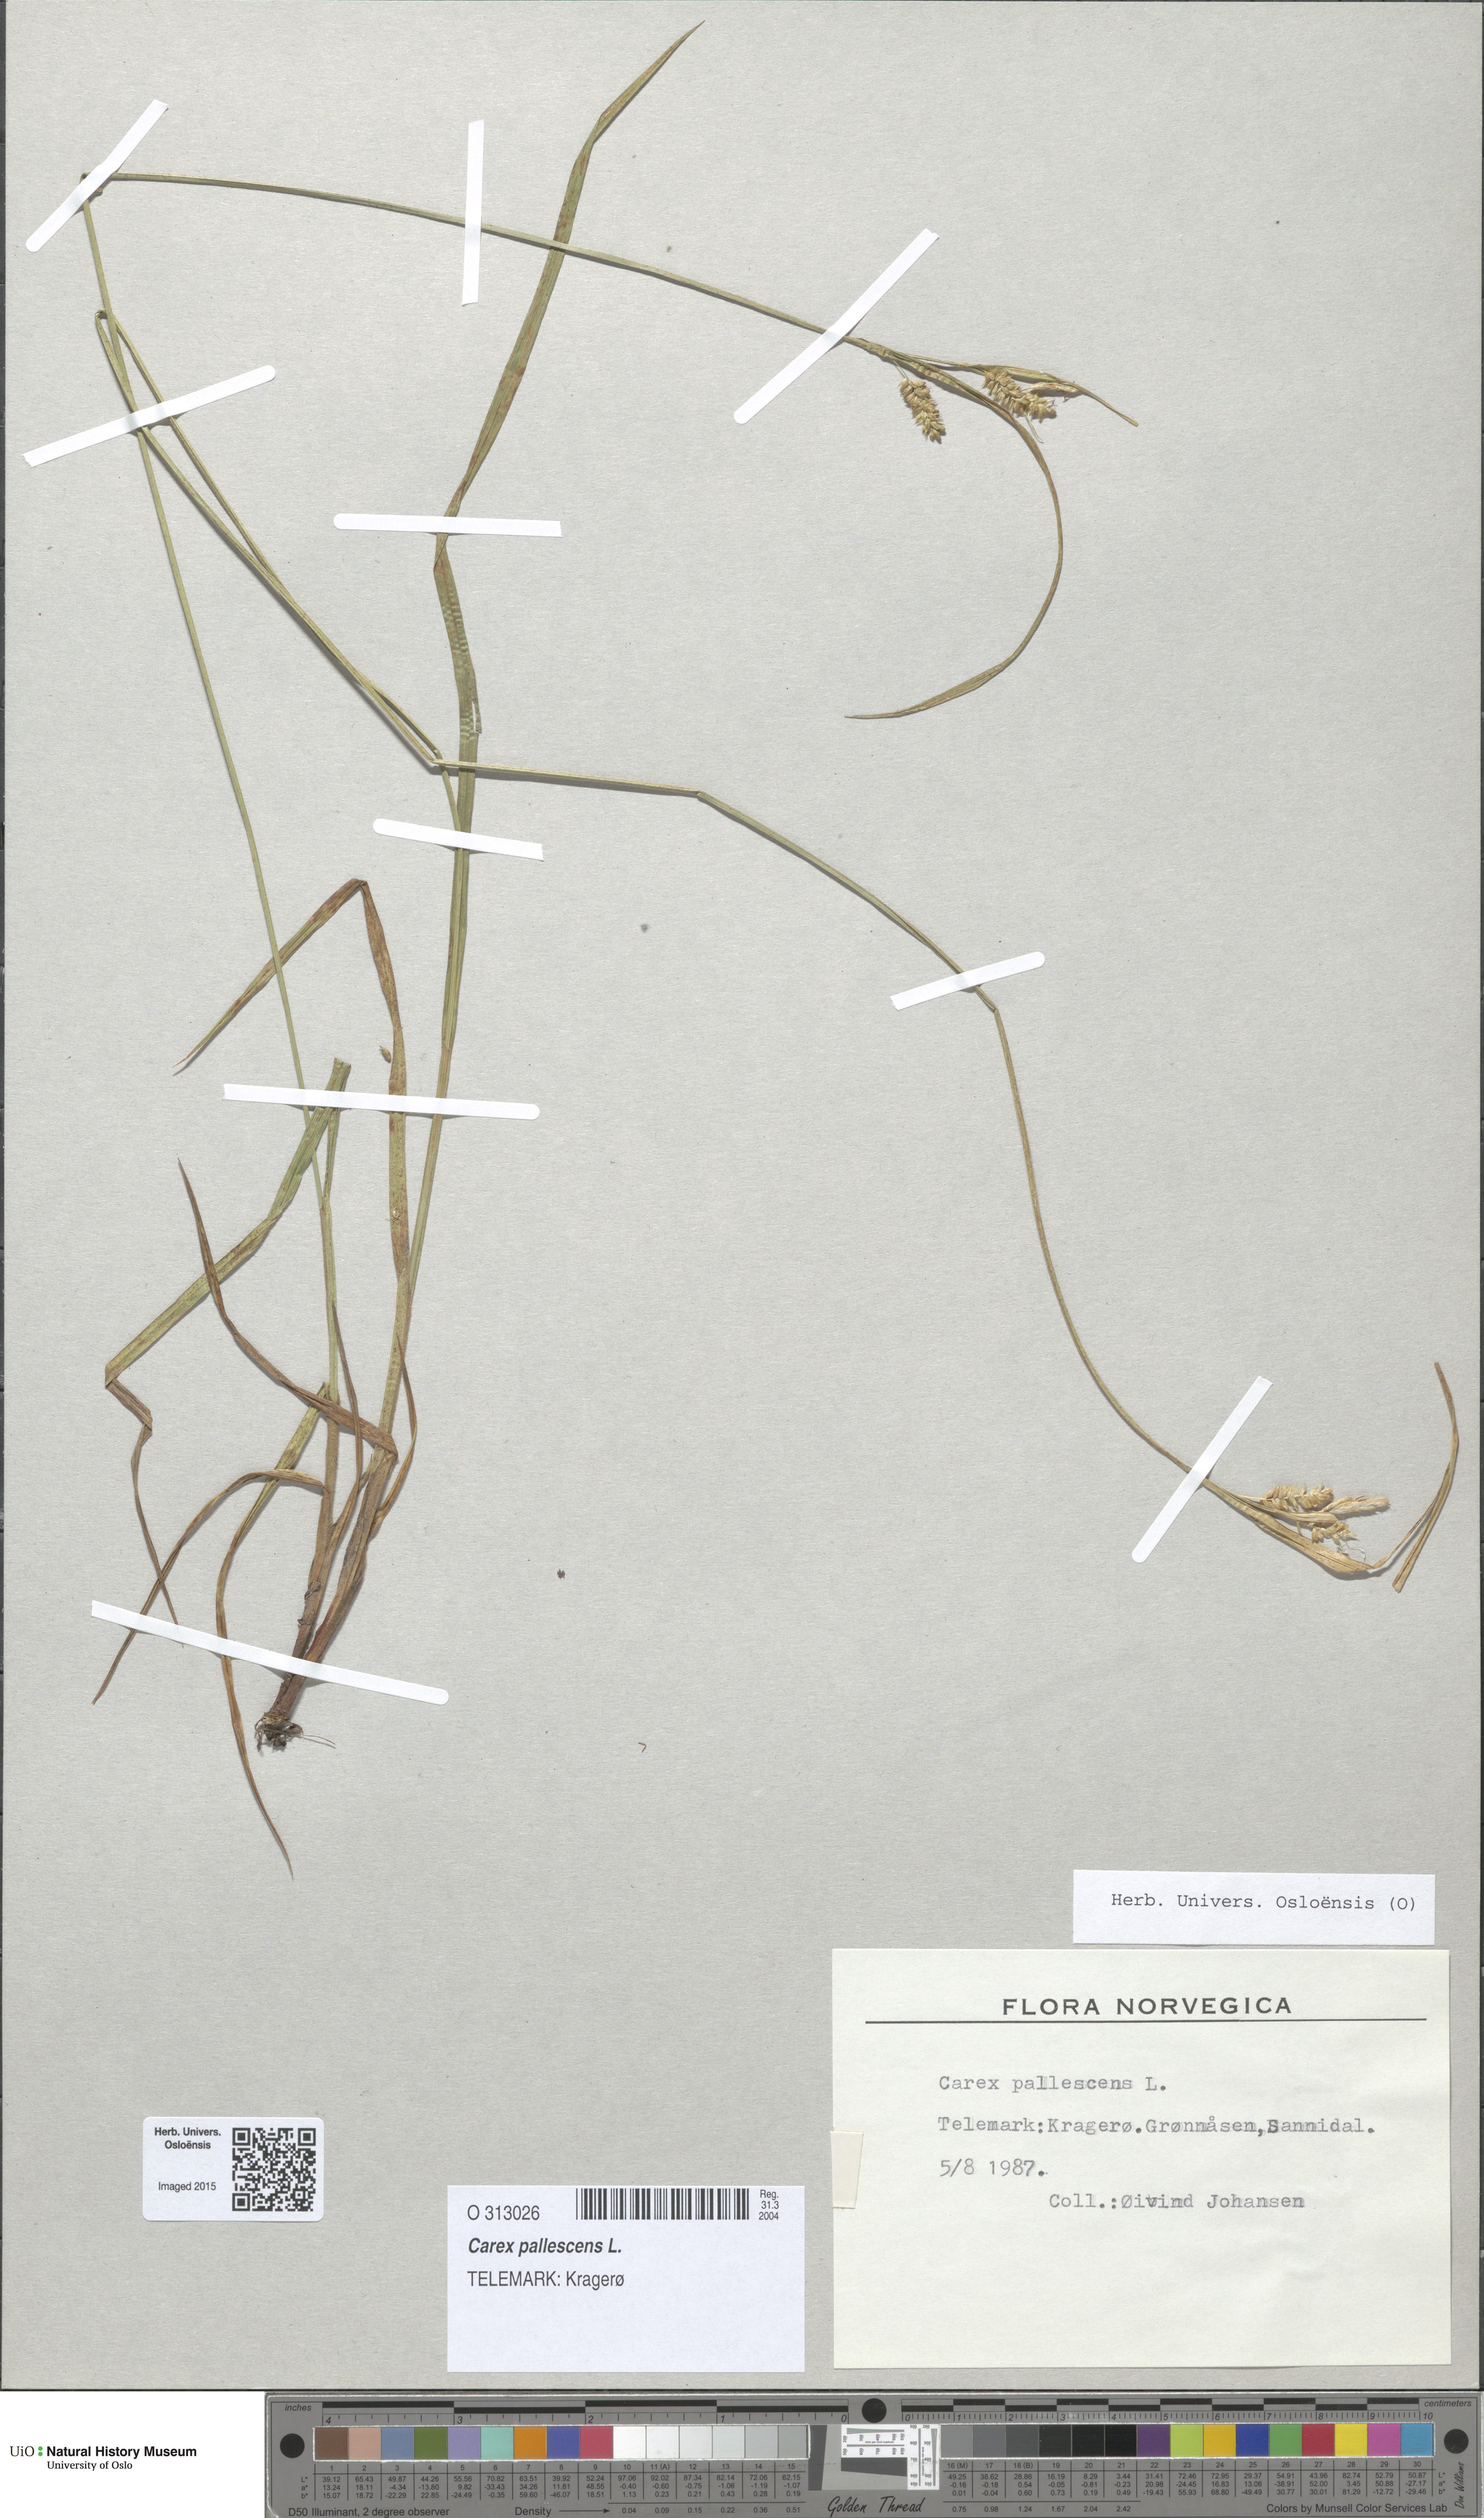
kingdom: Plantae
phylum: Tracheophyta
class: Liliopsida
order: Poales
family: Cyperaceae
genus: Carex
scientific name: Carex pallescens
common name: Pale sedge
